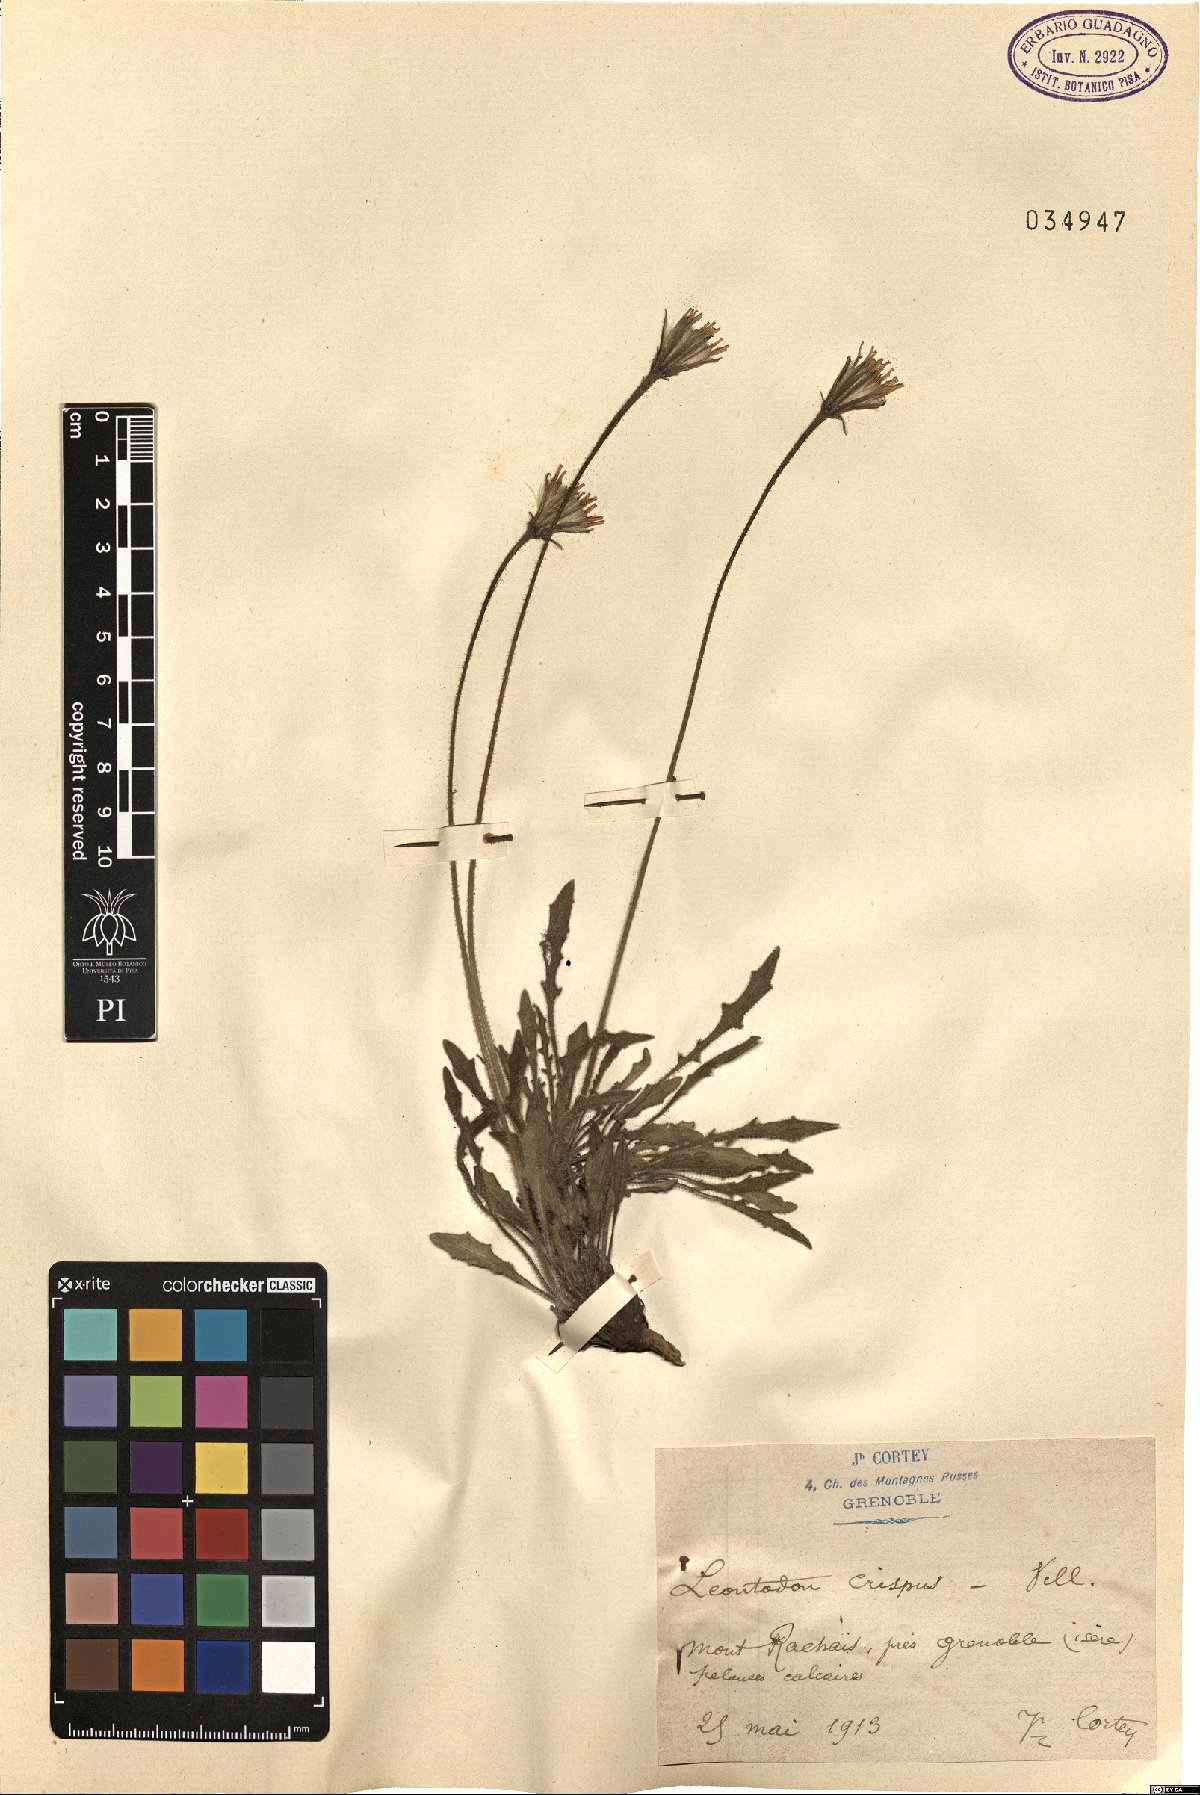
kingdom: Plantae
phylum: Tracheophyta
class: Magnoliopsida
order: Asterales
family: Asteraceae
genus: Leontodon
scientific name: Leontodon crispus
